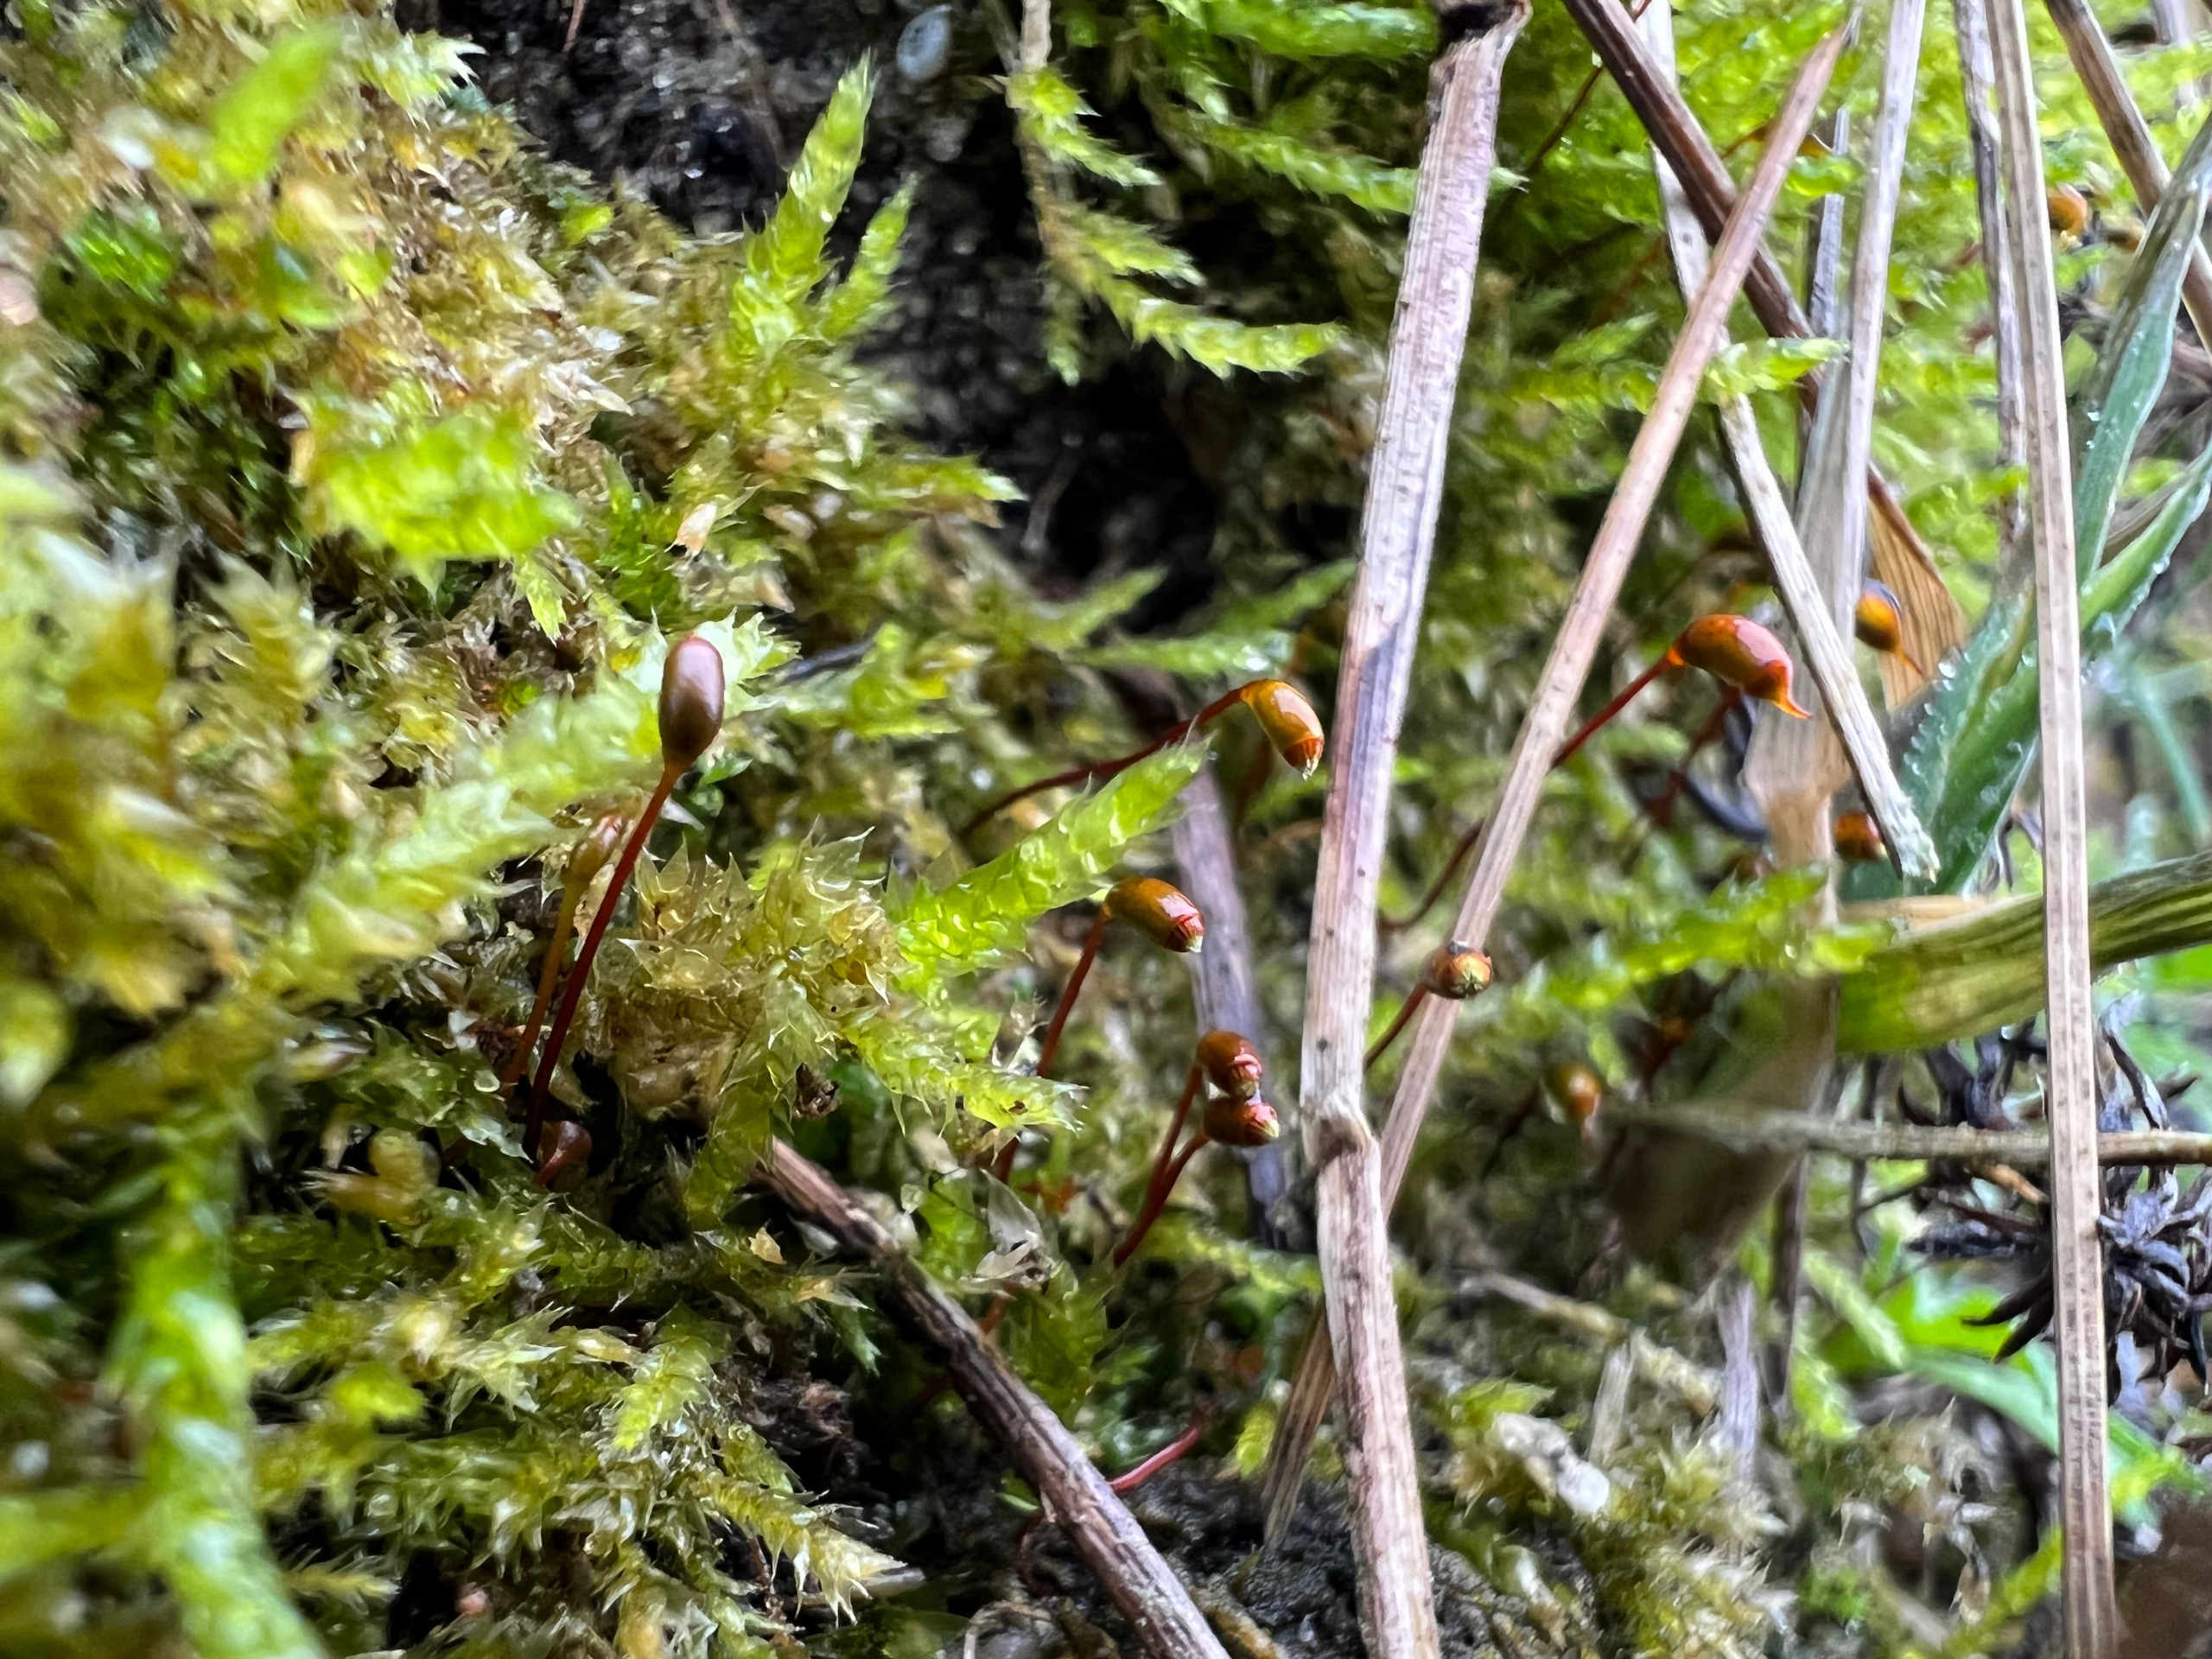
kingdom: Plantae
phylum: Bryophyta
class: Bryopsida
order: Hypnales
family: Brachytheciaceae
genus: Rhynchostegium
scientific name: Rhynchostegium megapolitanum
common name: Bredbladet langnæb
